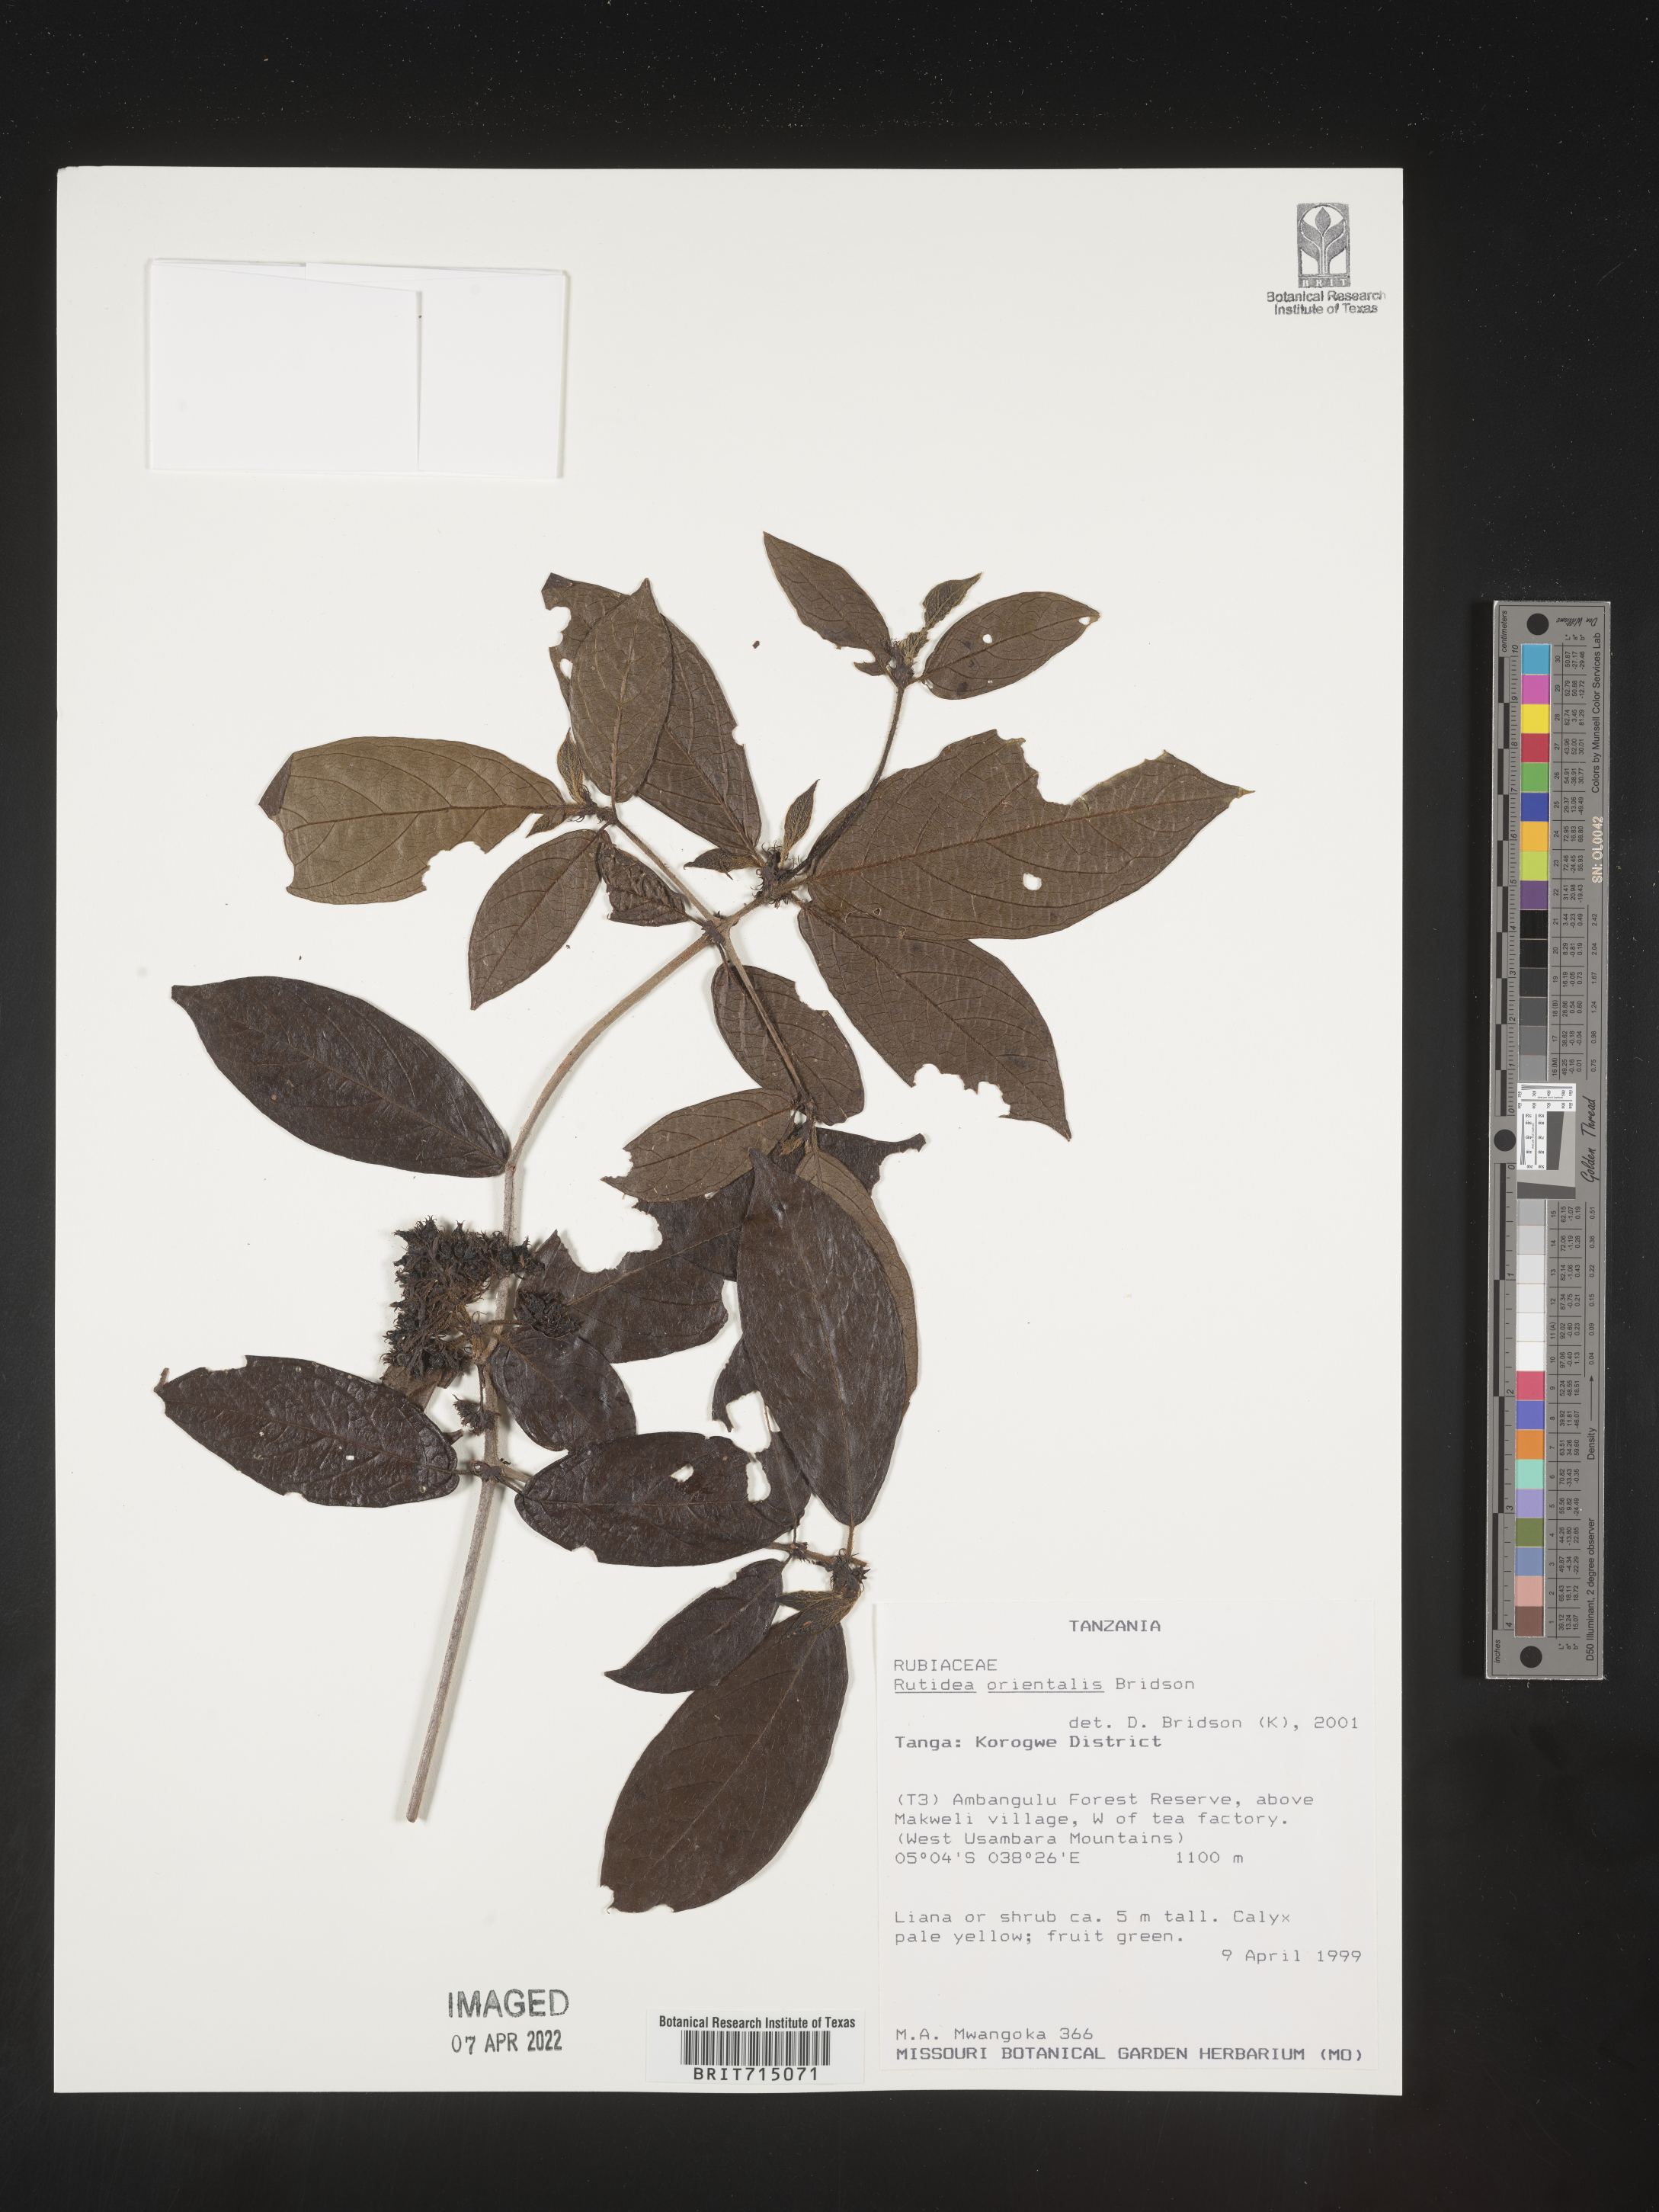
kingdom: Plantae
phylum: Tracheophyta
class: Magnoliopsida
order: Gentianales
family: Rubiaceae
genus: Rutidea
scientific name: Rutidea
